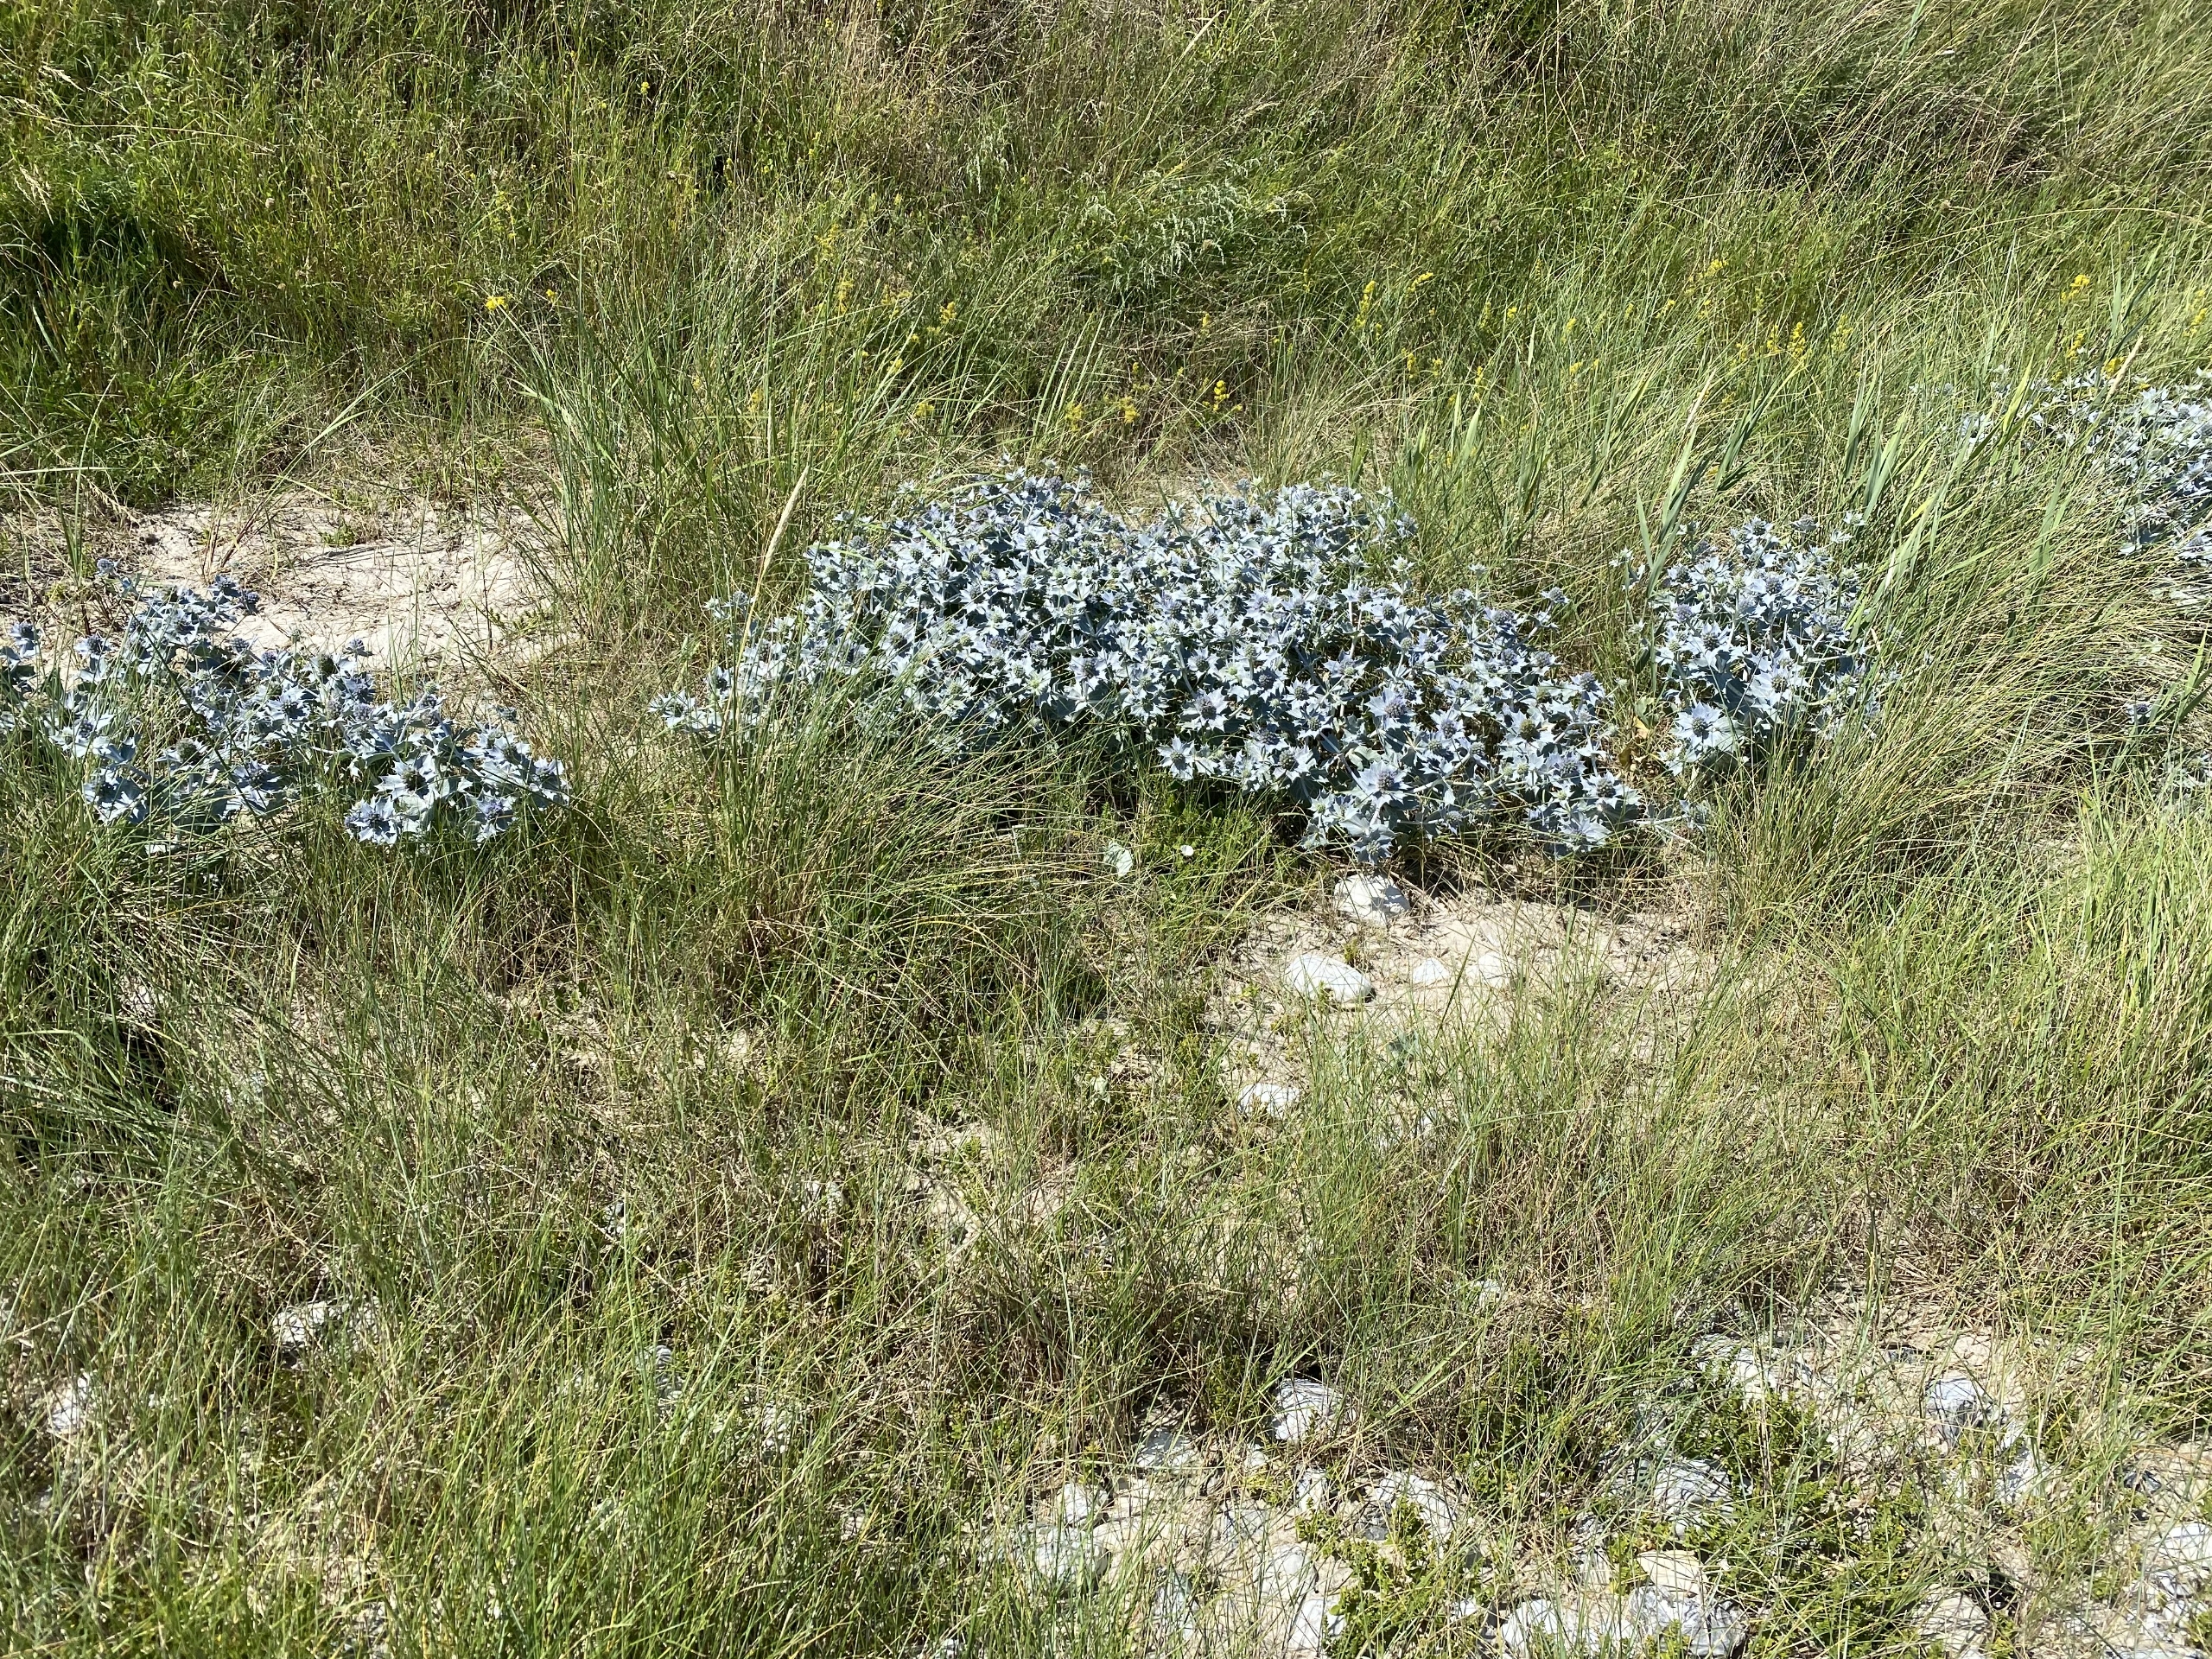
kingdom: Plantae
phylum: Tracheophyta
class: Magnoliopsida
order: Apiales
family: Apiaceae
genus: Eryngium
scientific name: Eryngium maritimum
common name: Strand-mandstro
